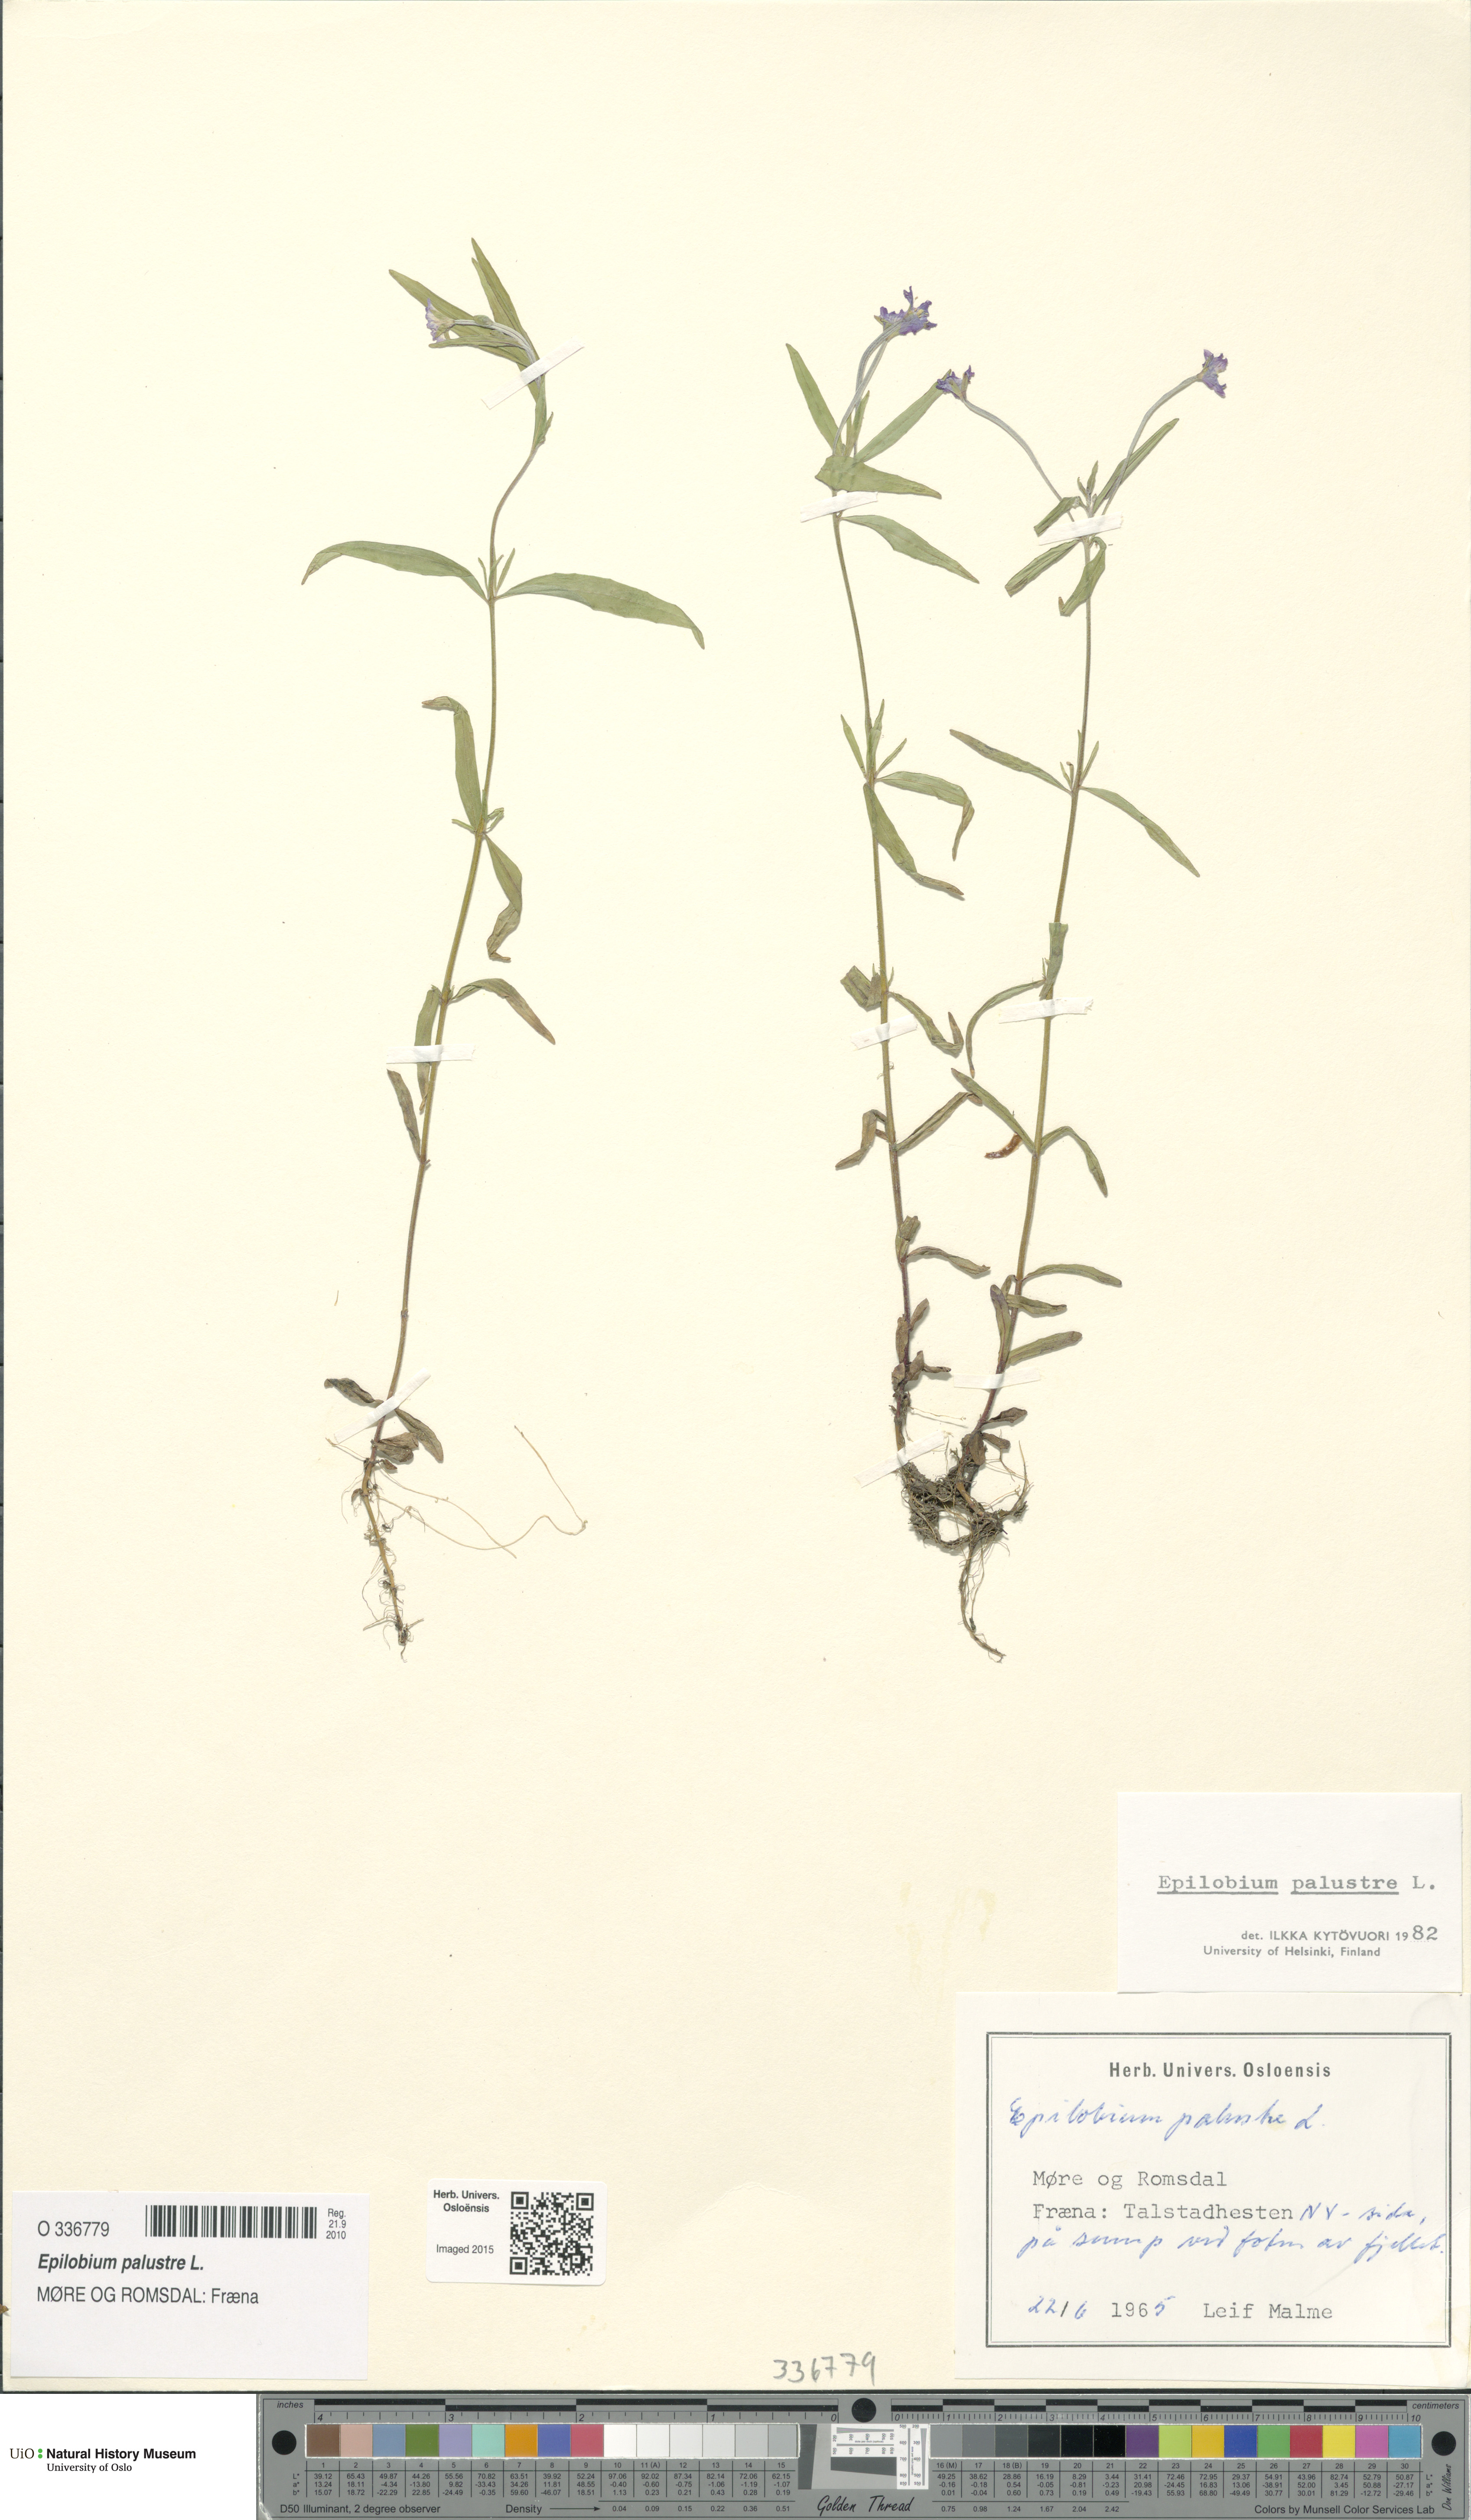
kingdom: Plantae
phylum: Tracheophyta
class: Magnoliopsida
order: Myrtales
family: Onagraceae
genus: Epilobium
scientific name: Epilobium palustre
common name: Marsh willowherb
